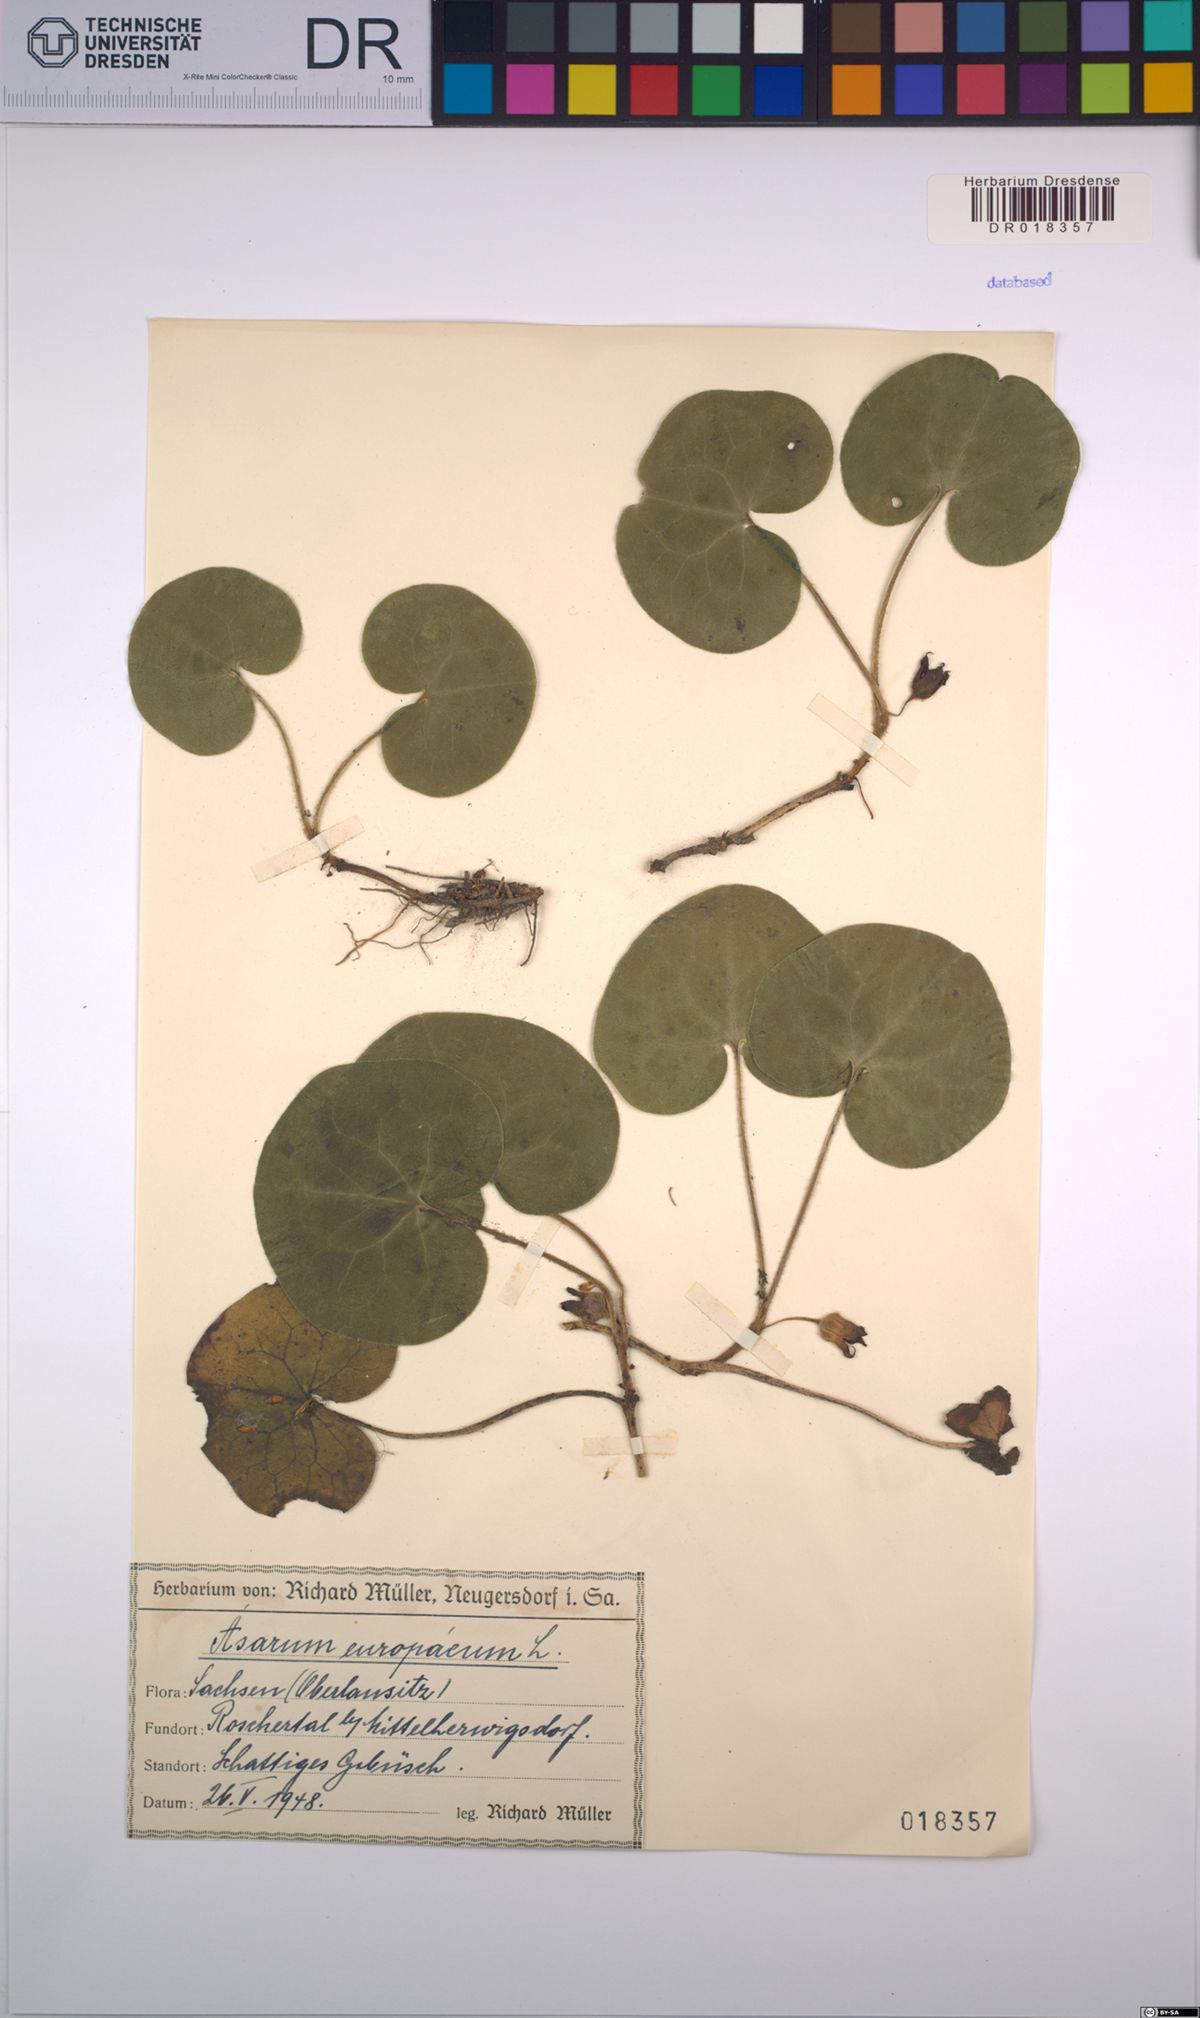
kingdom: Plantae
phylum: Tracheophyta
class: Magnoliopsida
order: Piperales
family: Aristolochiaceae
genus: Asarum
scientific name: Asarum europaeum
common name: Asarabacca
